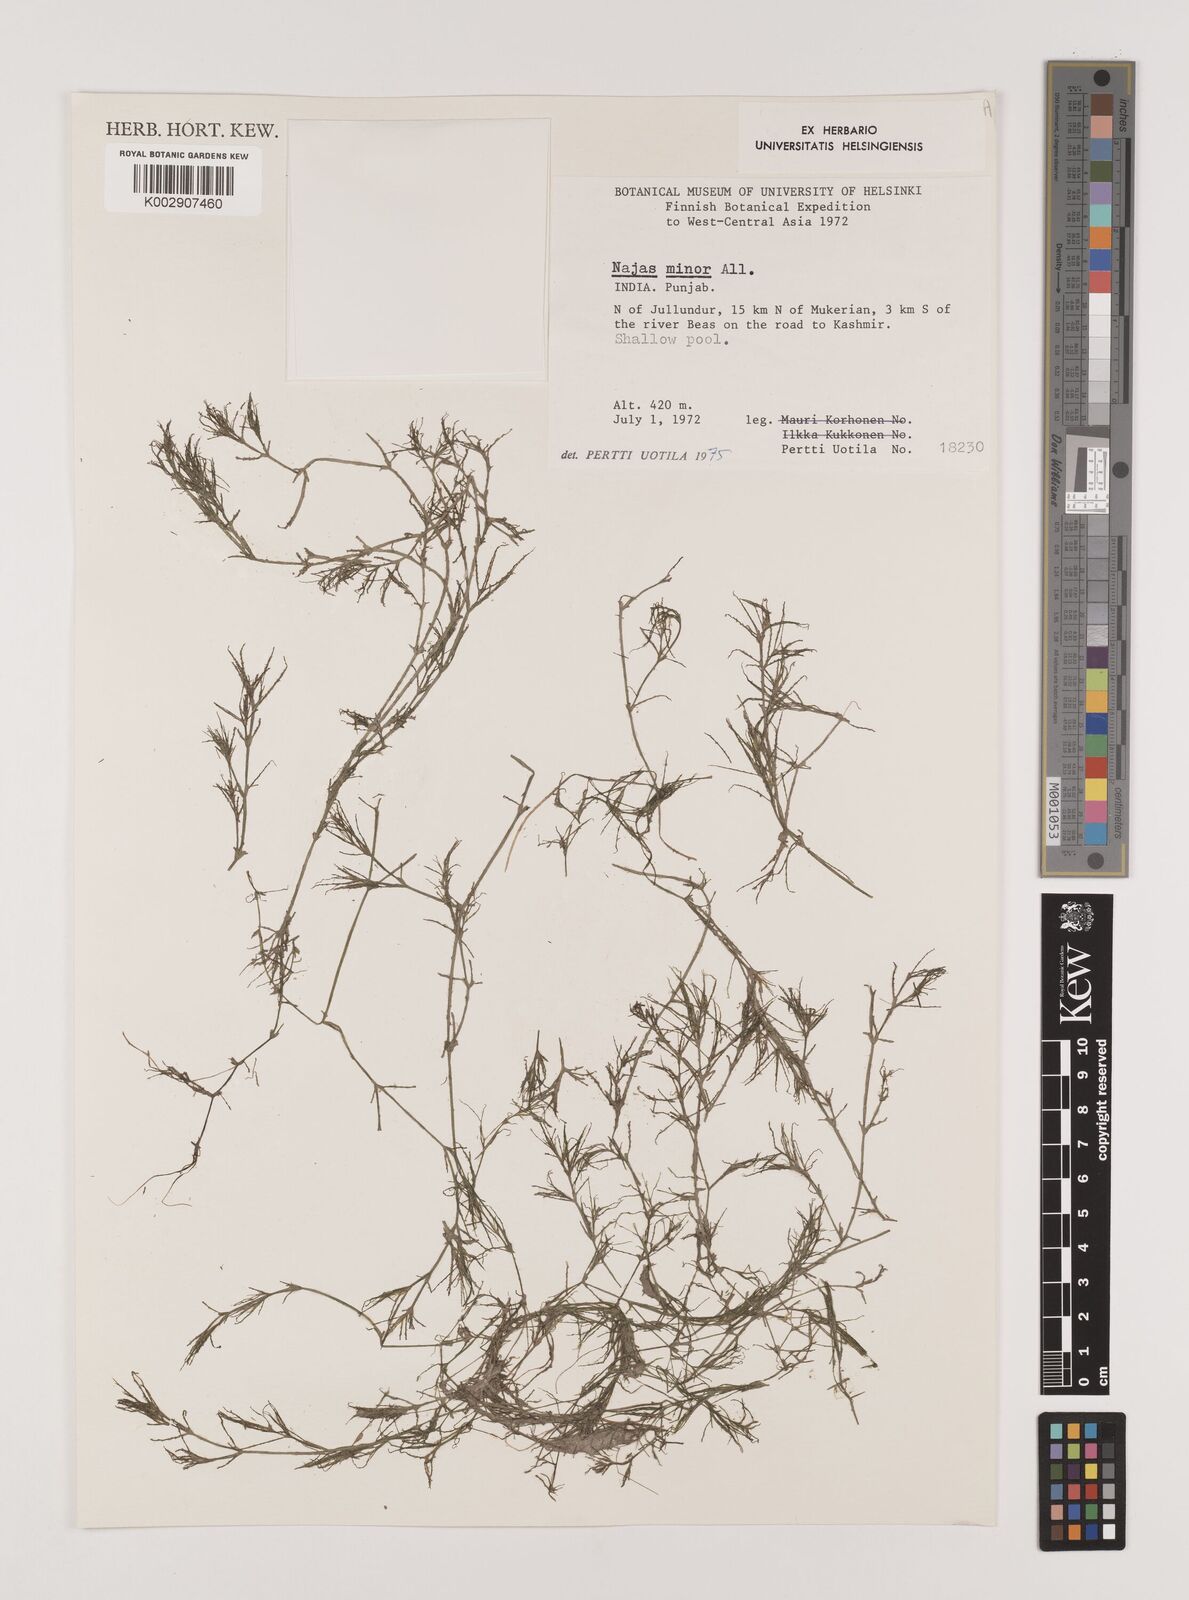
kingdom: Plantae
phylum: Tracheophyta
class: Liliopsida
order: Alismatales
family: Hydrocharitaceae
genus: Najas
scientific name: Najas marina
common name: Holly-leaved naiad
